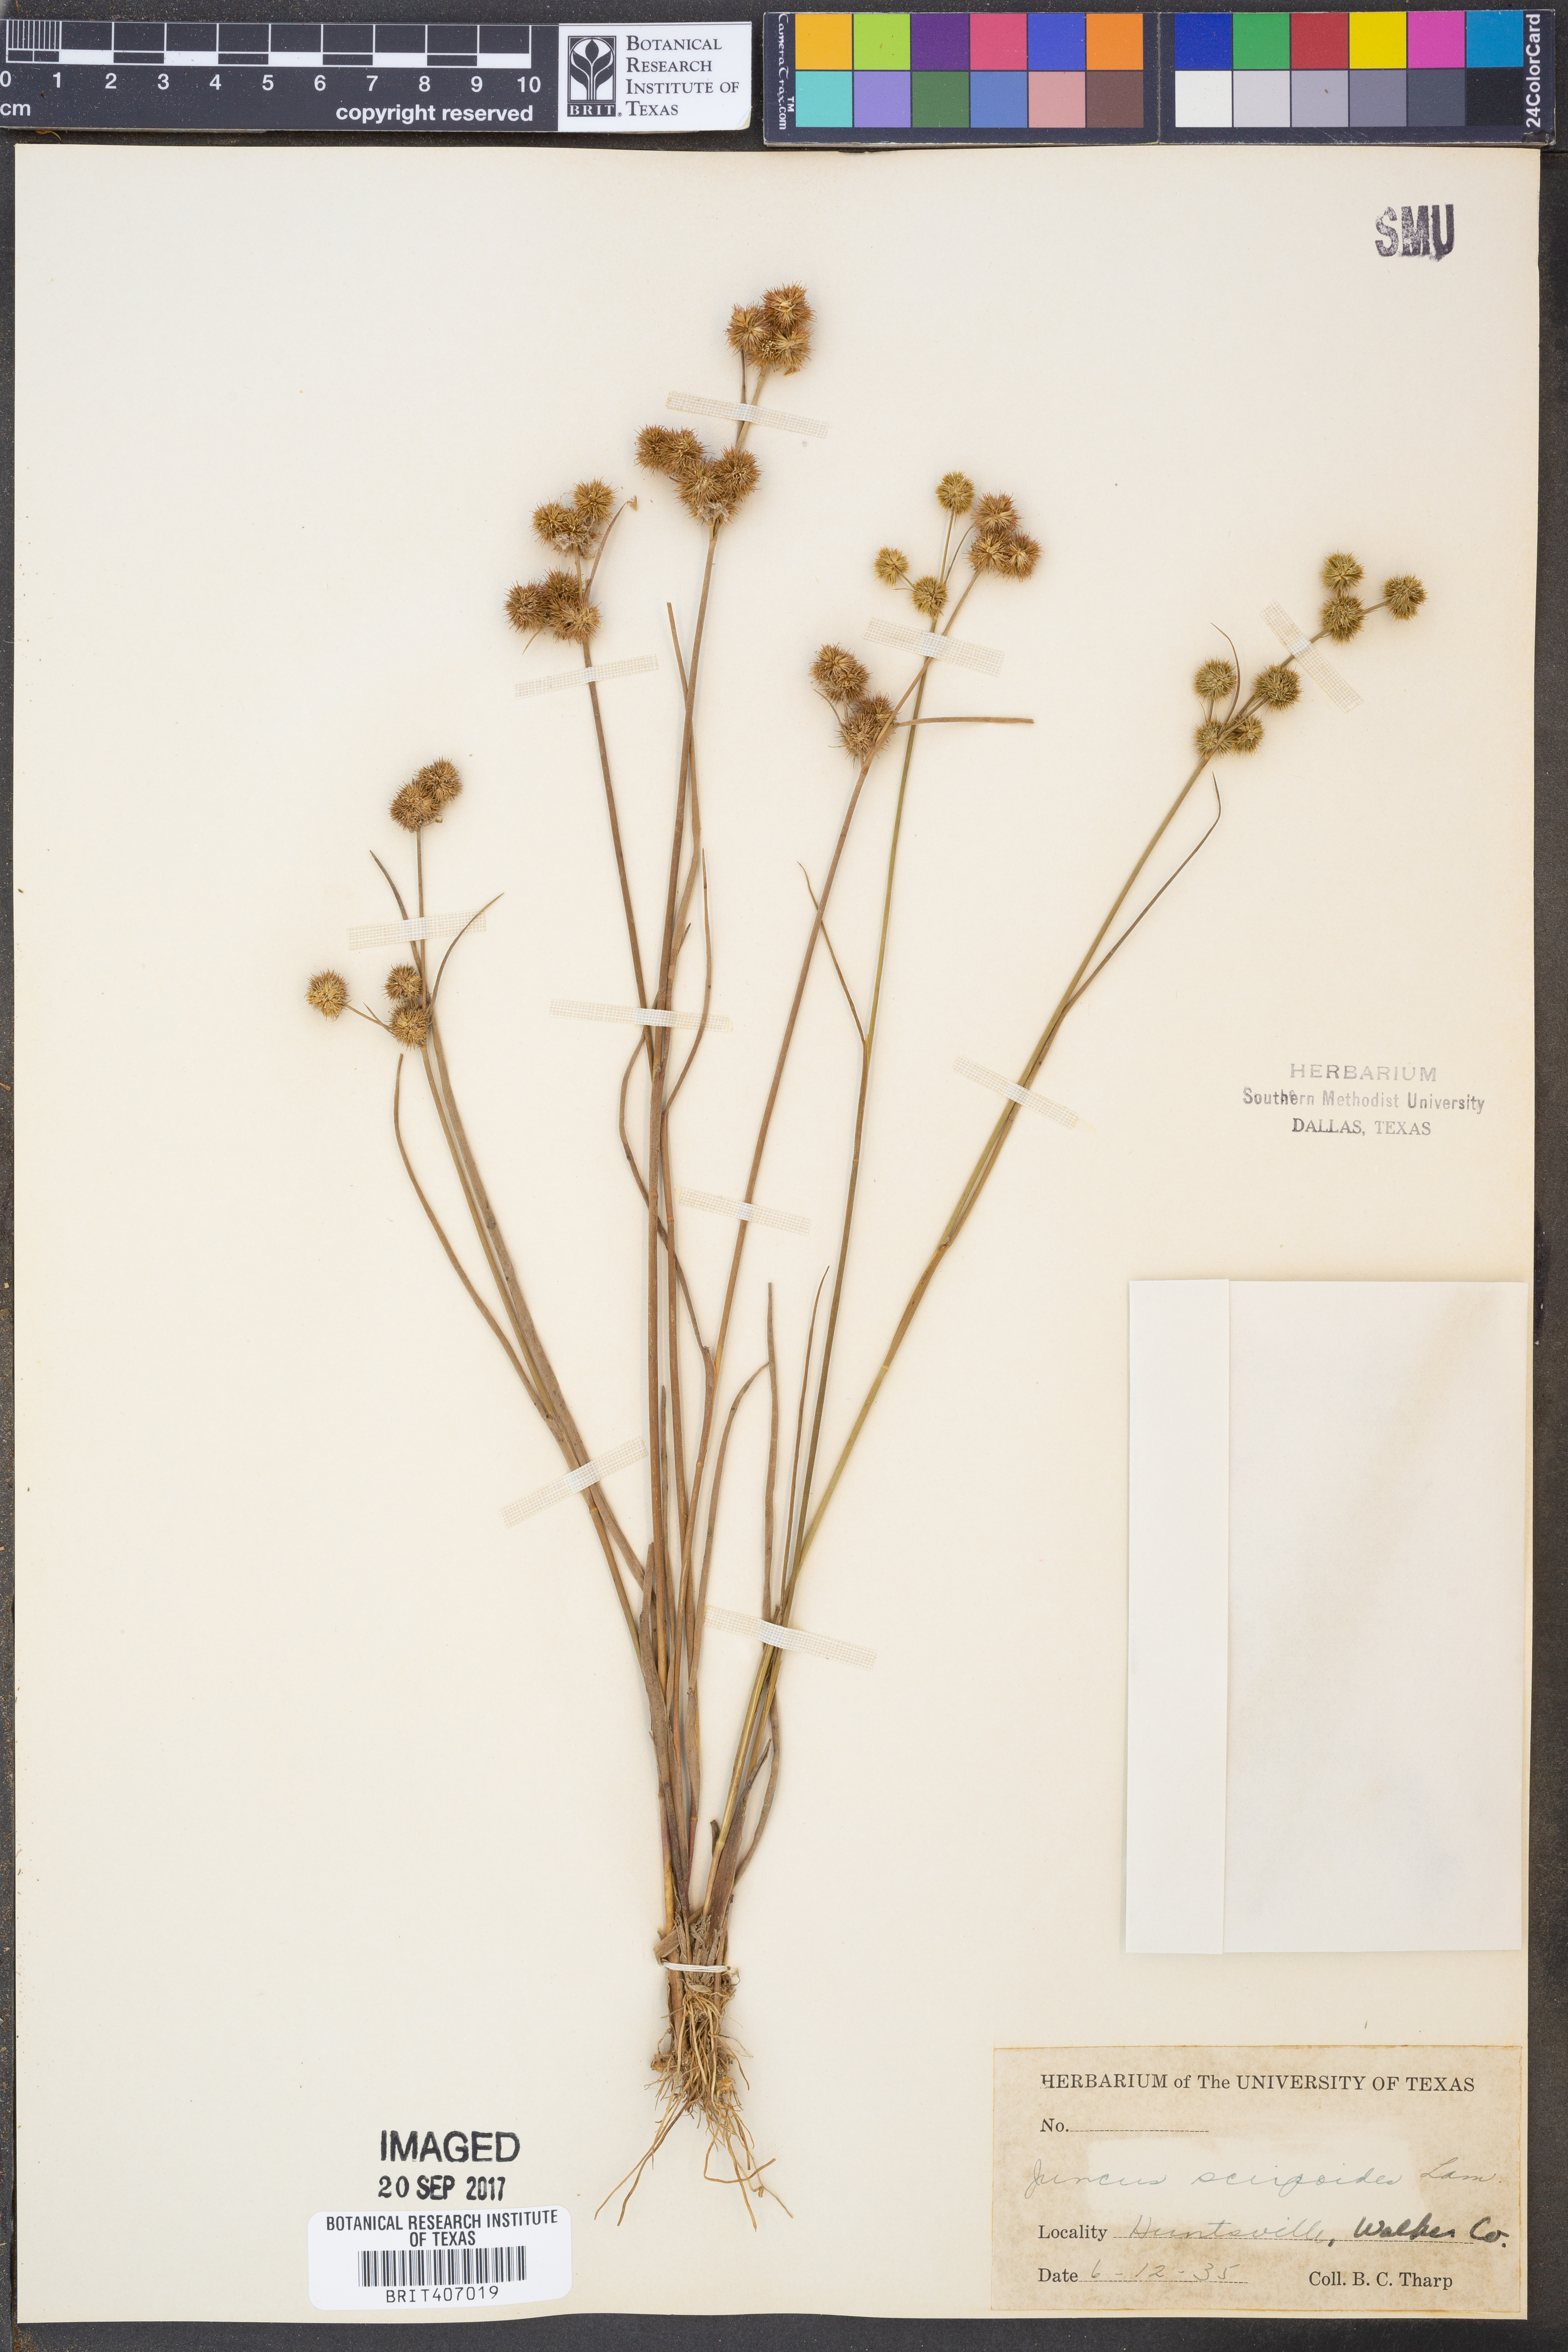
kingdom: Plantae
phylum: Tracheophyta
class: Liliopsida
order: Poales
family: Juncaceae
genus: Juncus
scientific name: Juncus scirpoides
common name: Needlepod rush
